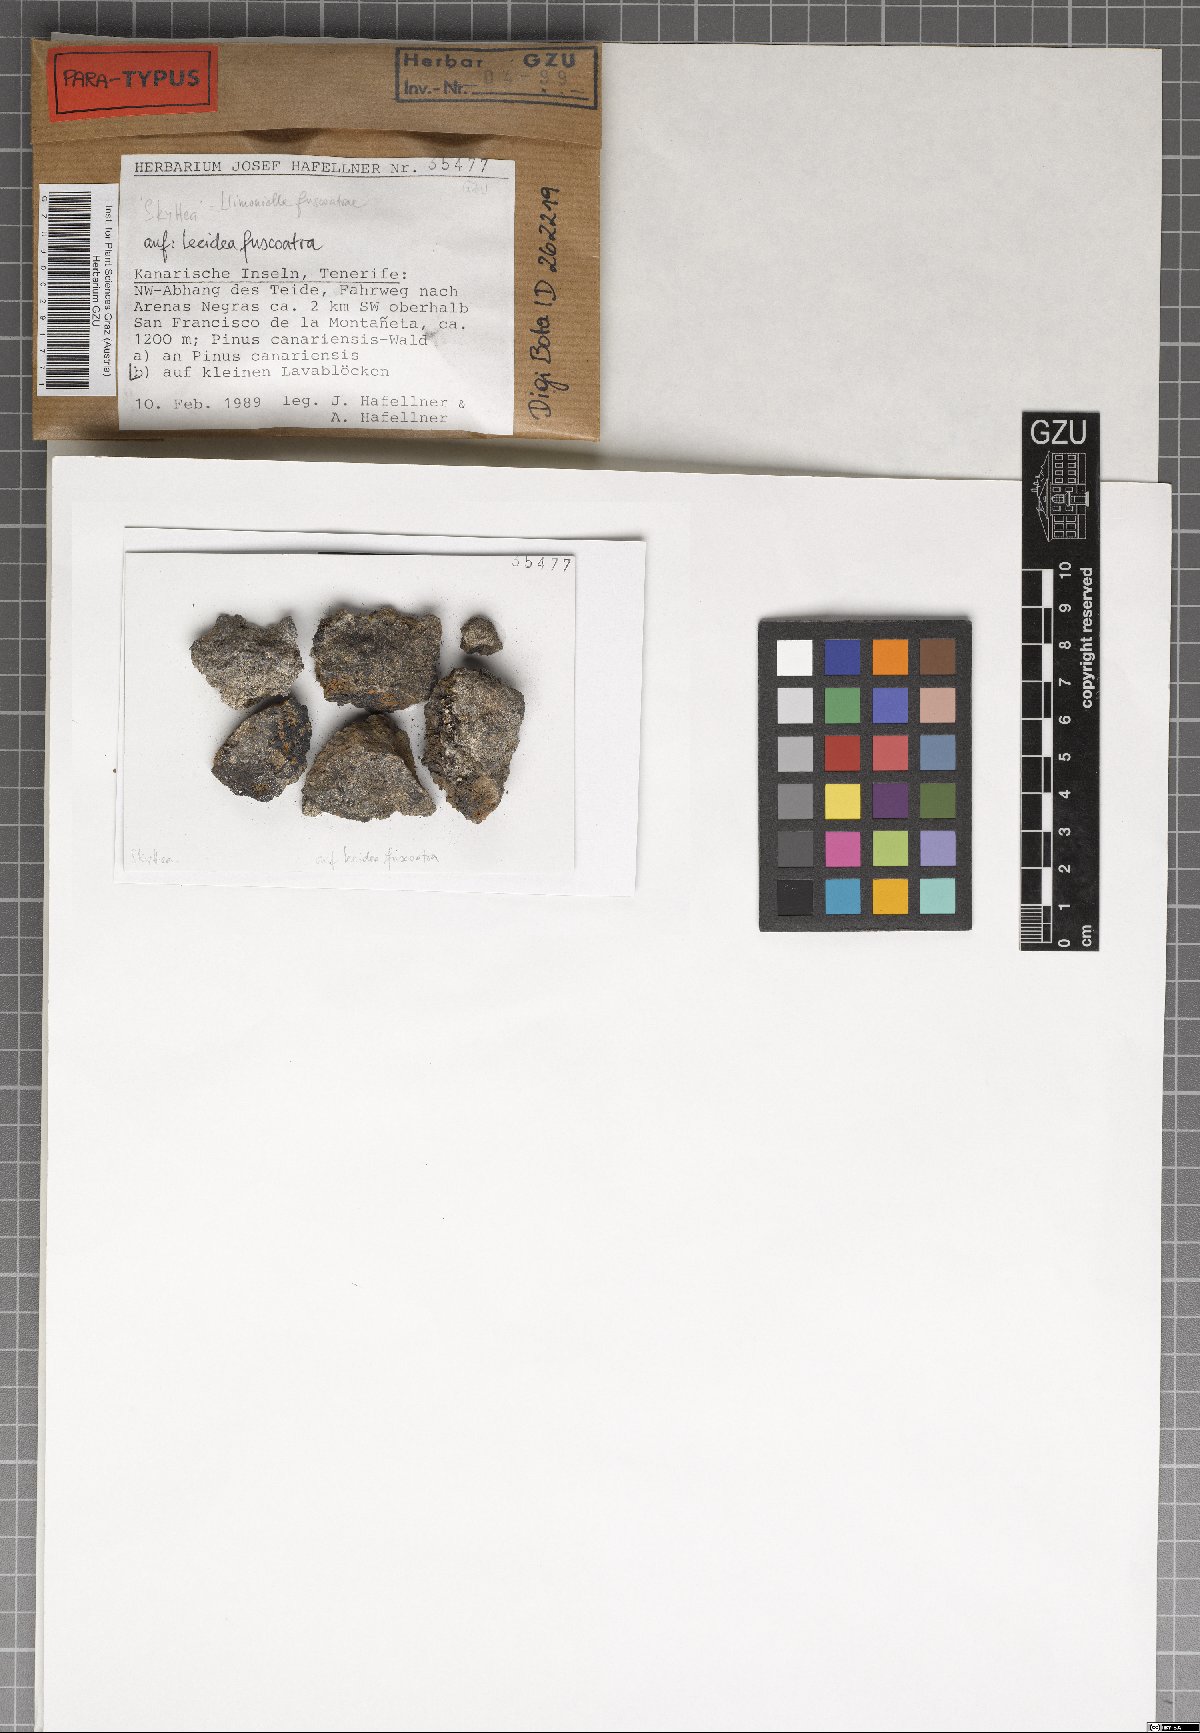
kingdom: Fungi
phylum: Ascomycota
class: Leotiomycetes
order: Helotiales
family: Cordieritidaceae
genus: Llimoniella
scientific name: Llimoniella fuscoatrae
